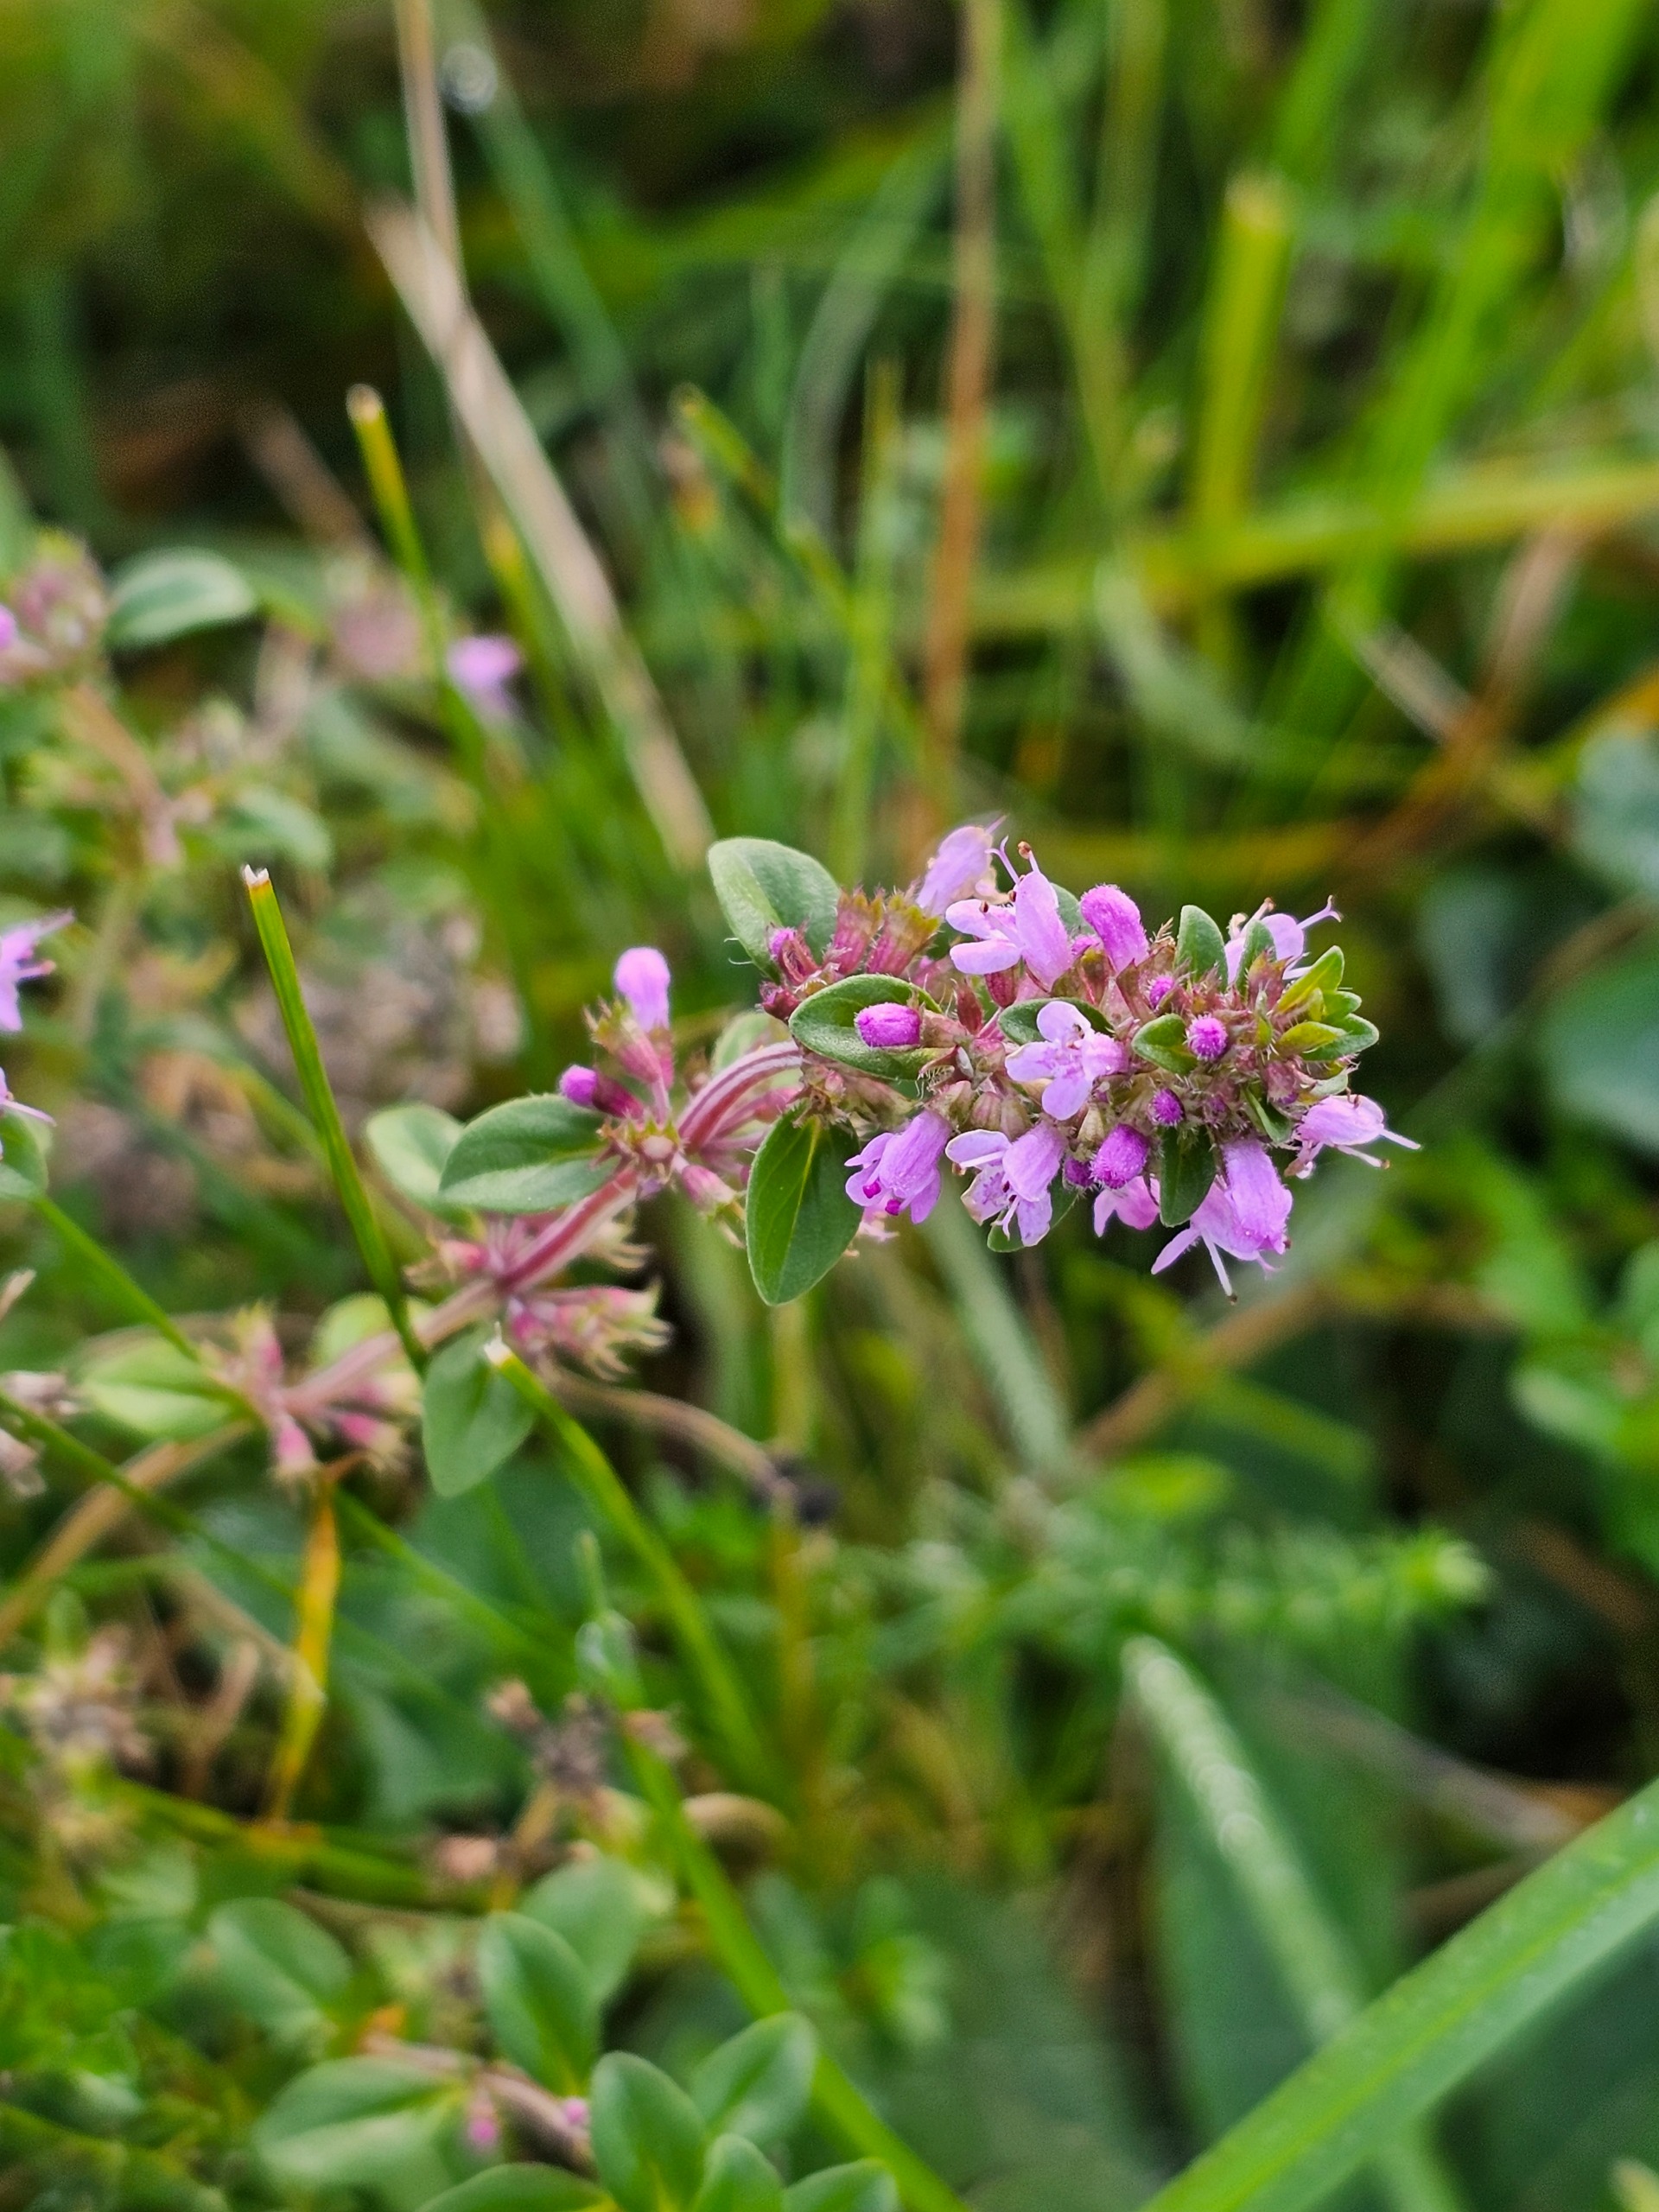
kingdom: Plantae
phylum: Tracheophyta
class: Magnoliopsida
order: Lamiales
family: Lamiaceae
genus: Thymus
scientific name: Thymus pulegioides
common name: Bredbladet timian
